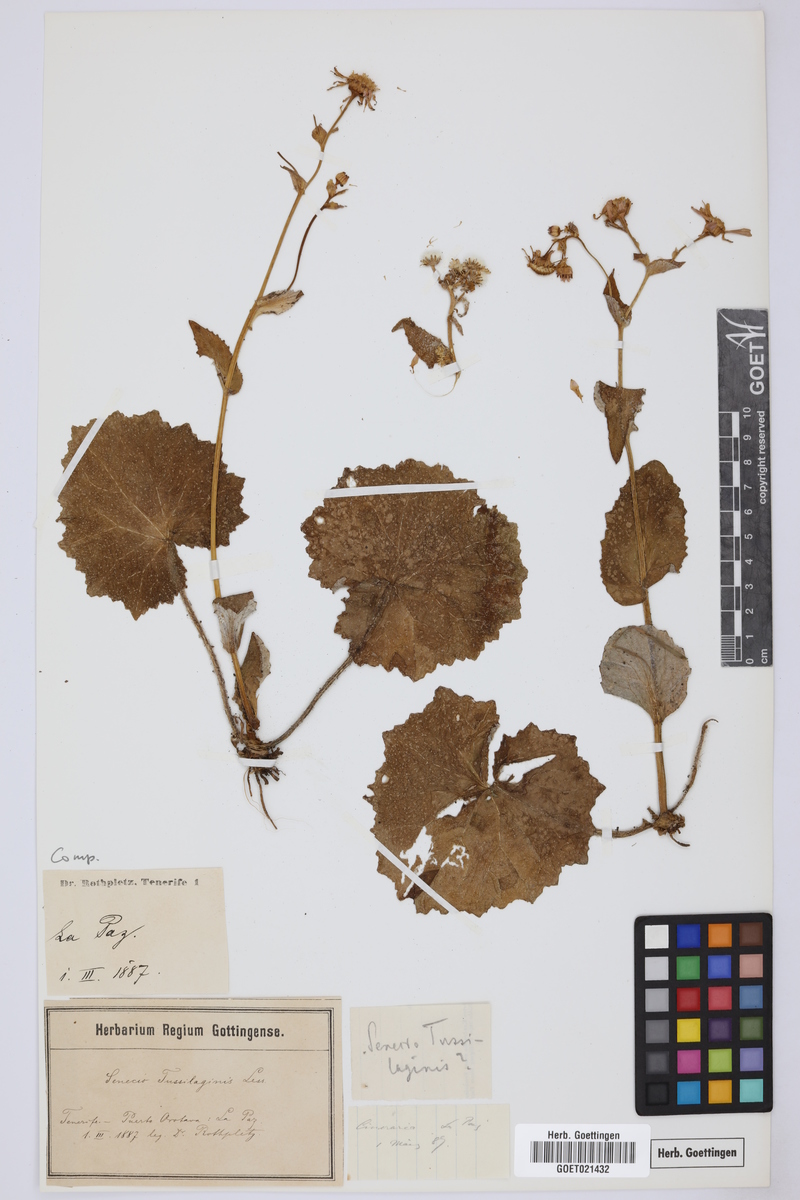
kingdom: Plantae
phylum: Tracheophyta
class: Magnoliopsida
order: Asterales
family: Asteraceae
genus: Pericallis
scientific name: Pericallis tussilaginis
